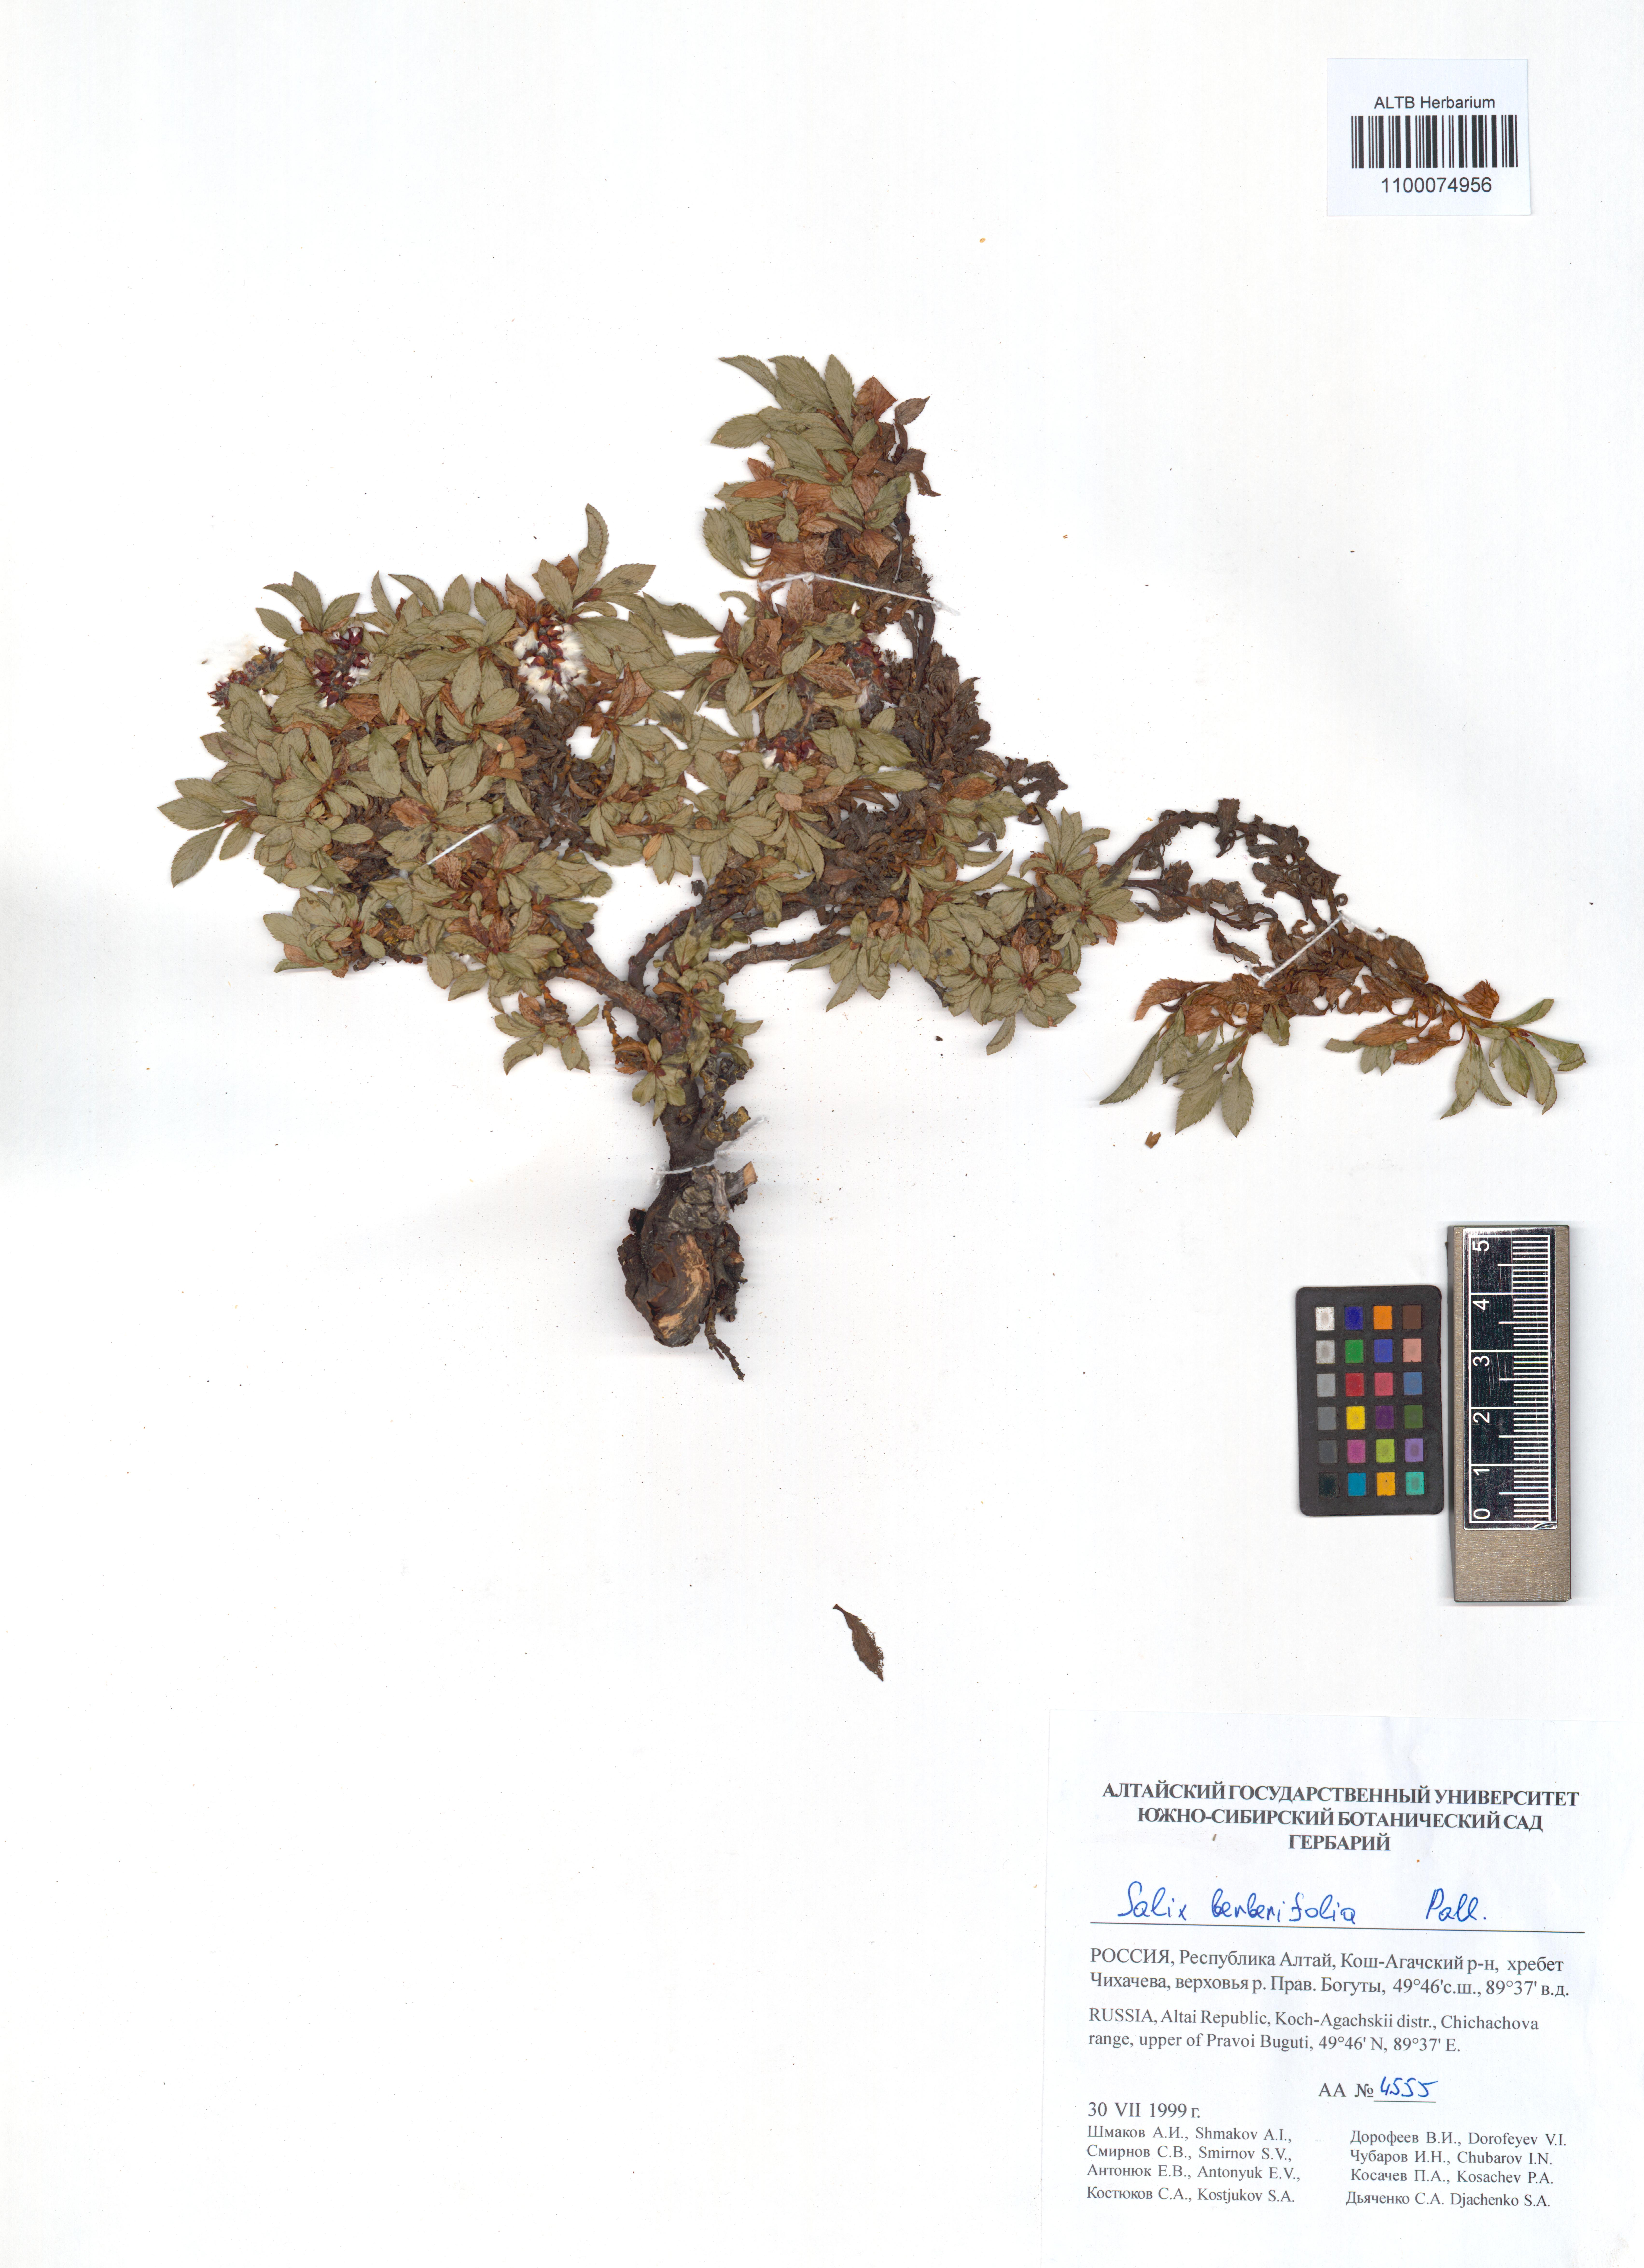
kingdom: Plantae
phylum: Tracheophyta
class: Magnoliopsida
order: Malpighiales
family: Salicaceae
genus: Salix
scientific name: Salix berberifolia
